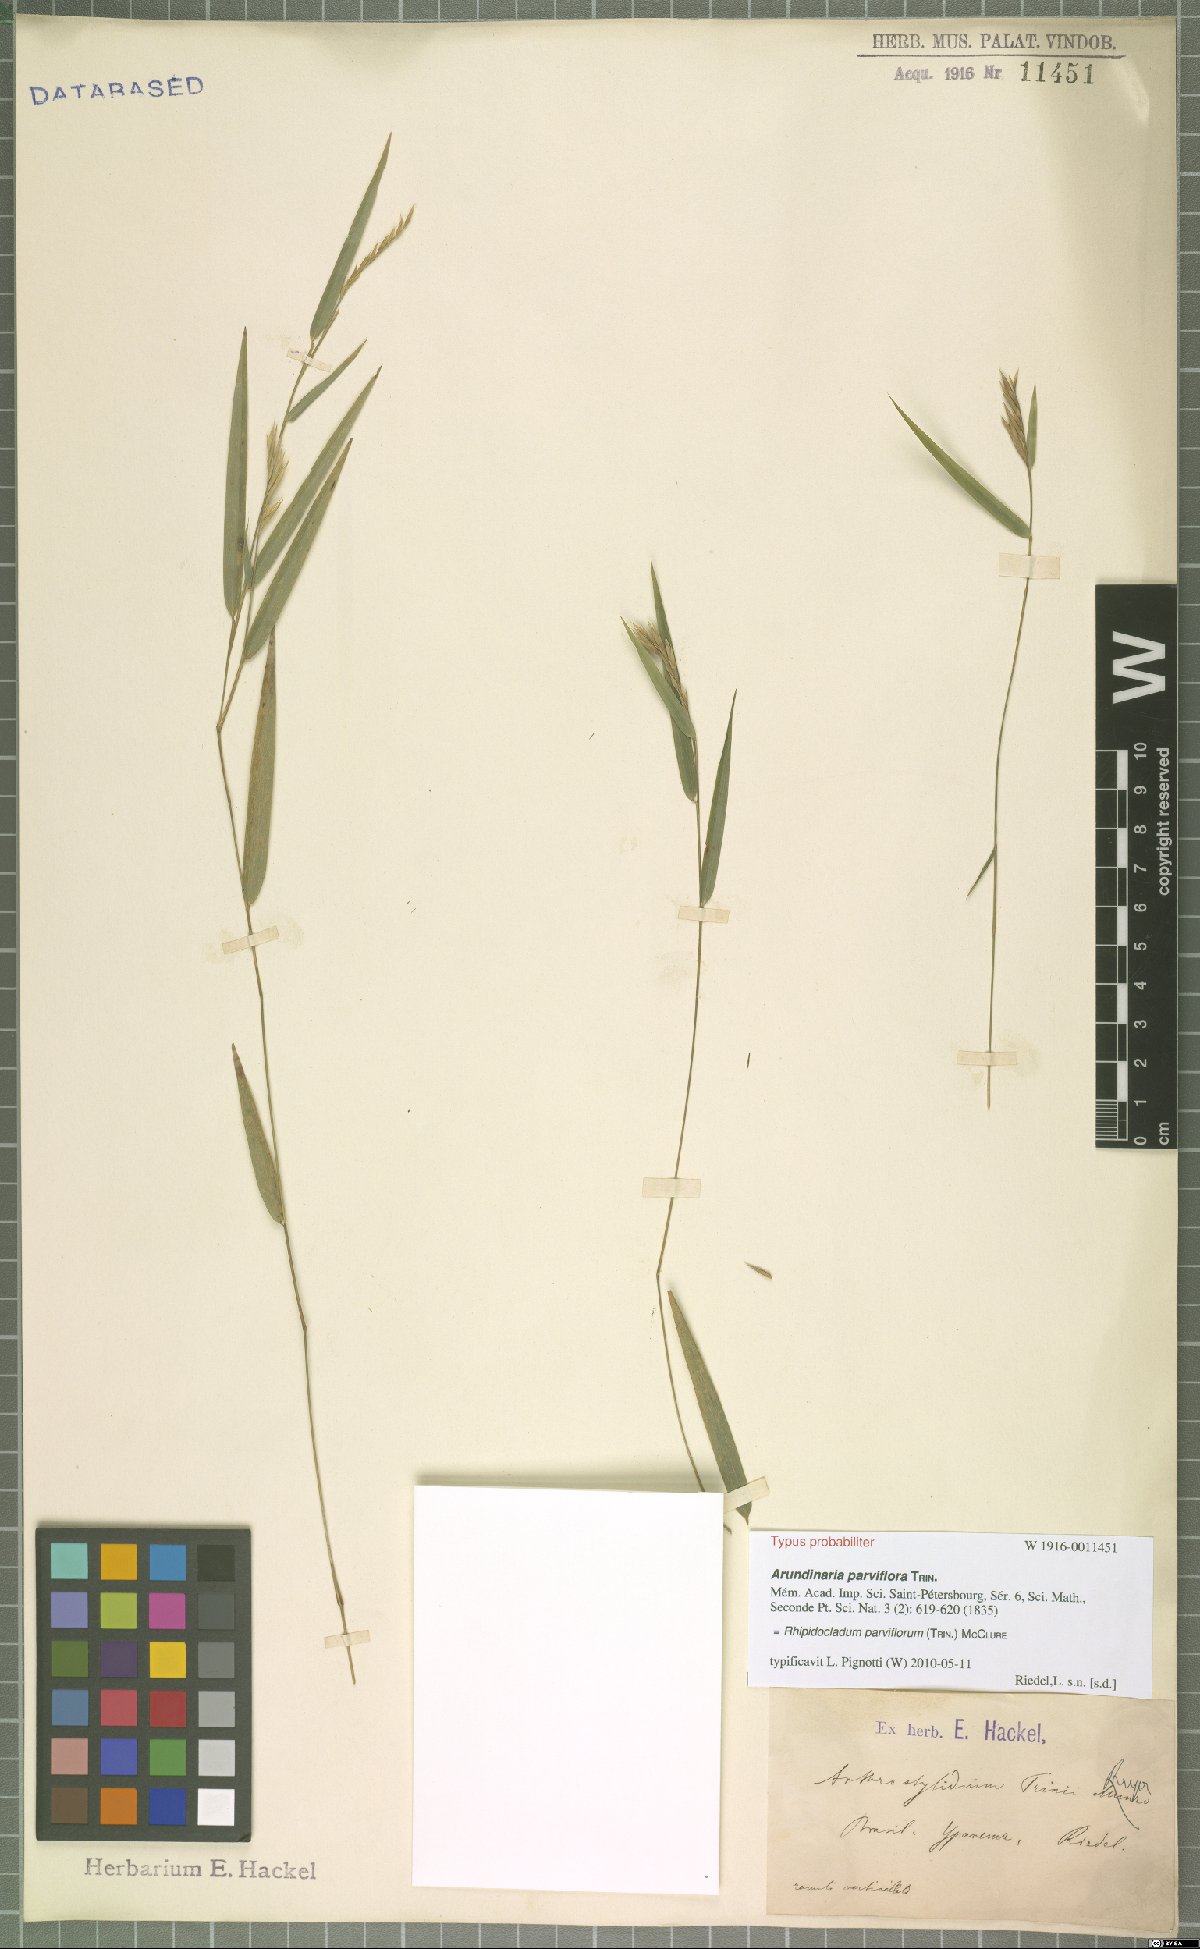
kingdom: Plantae
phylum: Tracheophyta
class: Liliopsida
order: Poales
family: Poaceae
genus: Rhipidocladum
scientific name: Rhipidocladum parviflorum
